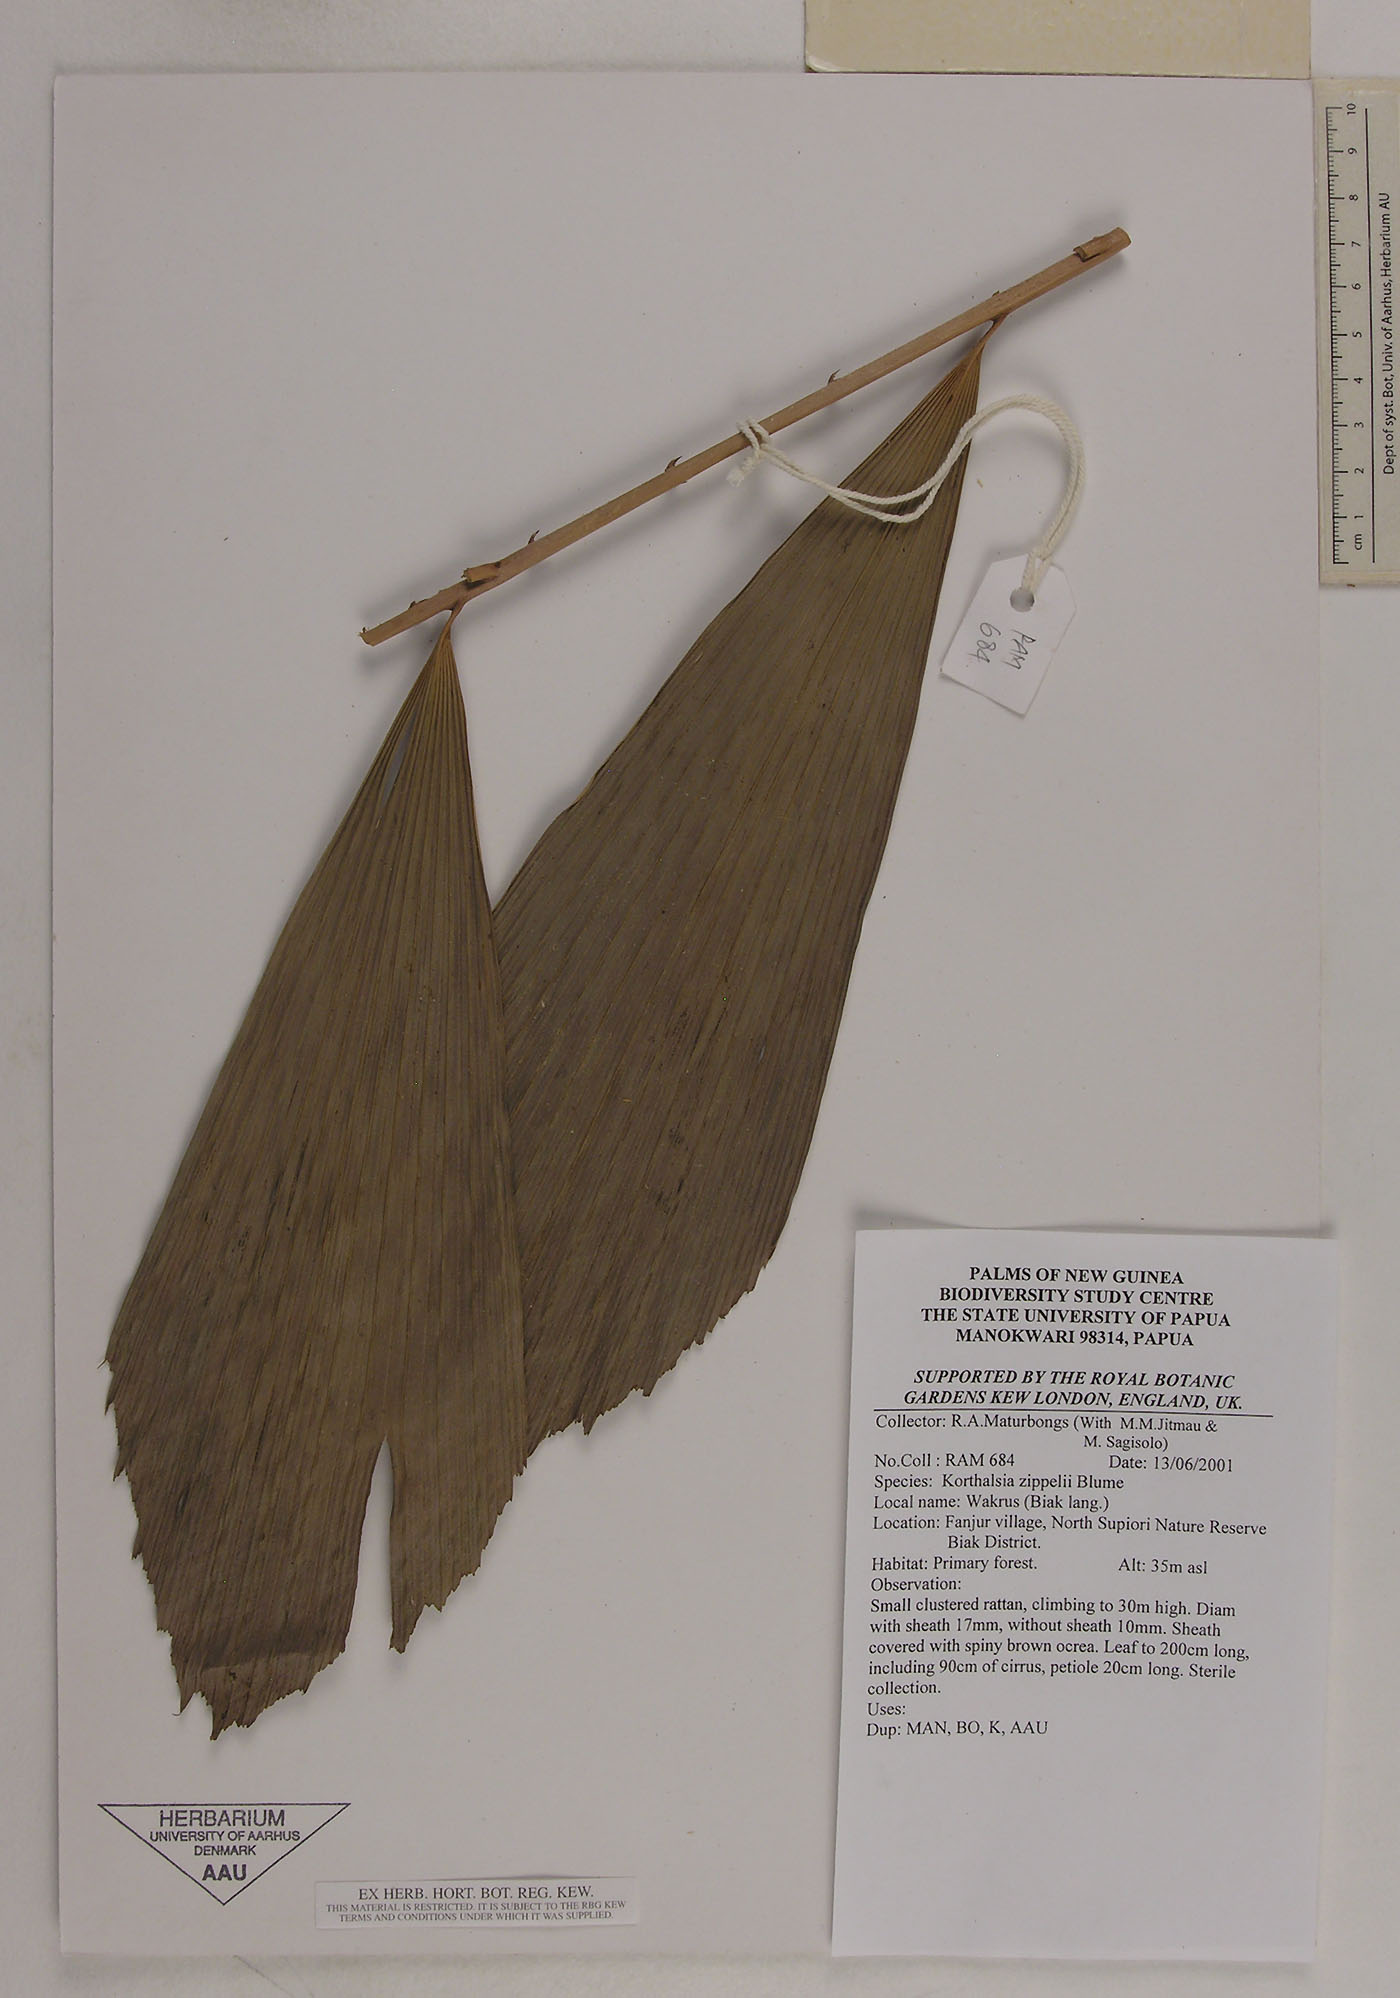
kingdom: Plantae
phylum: Tracheophyta
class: Liliopsida
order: Arecales
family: Arecaceae
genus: Korthalsia
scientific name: Korthalsia zippelii
